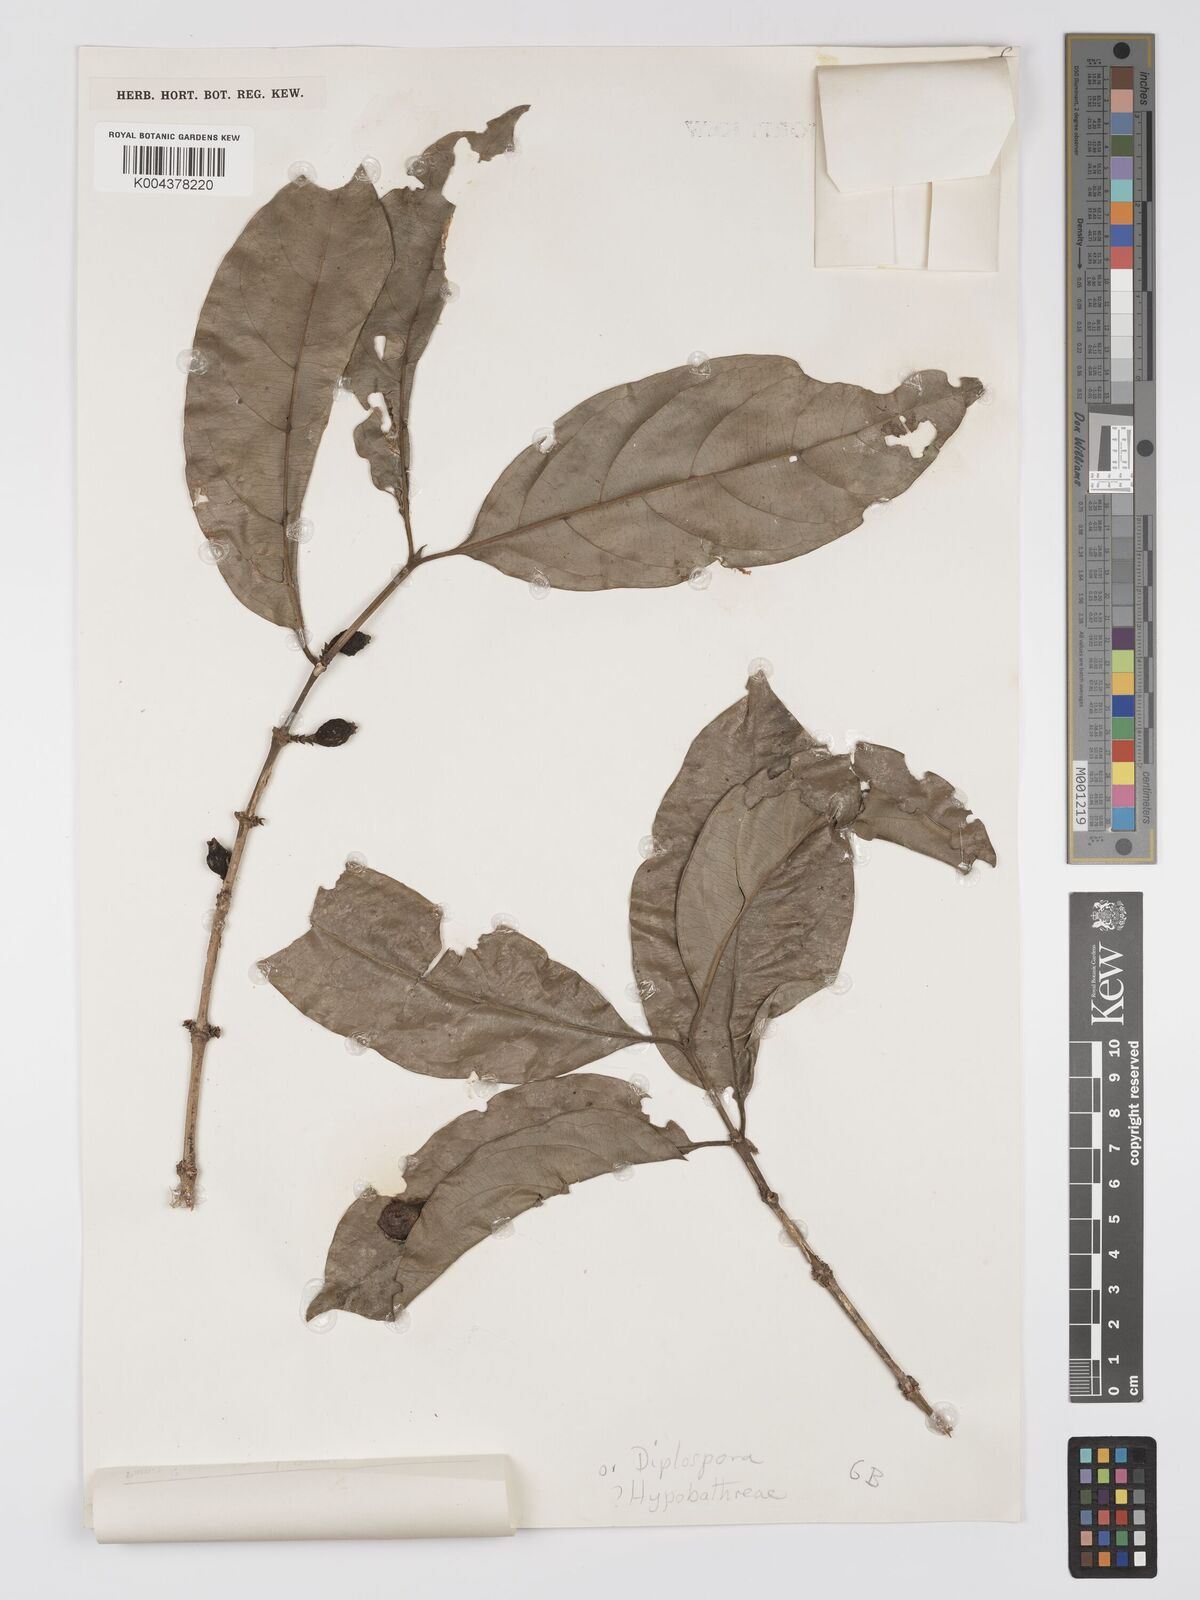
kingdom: Plantae
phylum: Tracheophyta
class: Magnoliopsida
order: Gentianales
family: Rubiaceae
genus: Diplospora
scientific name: Diplospora
